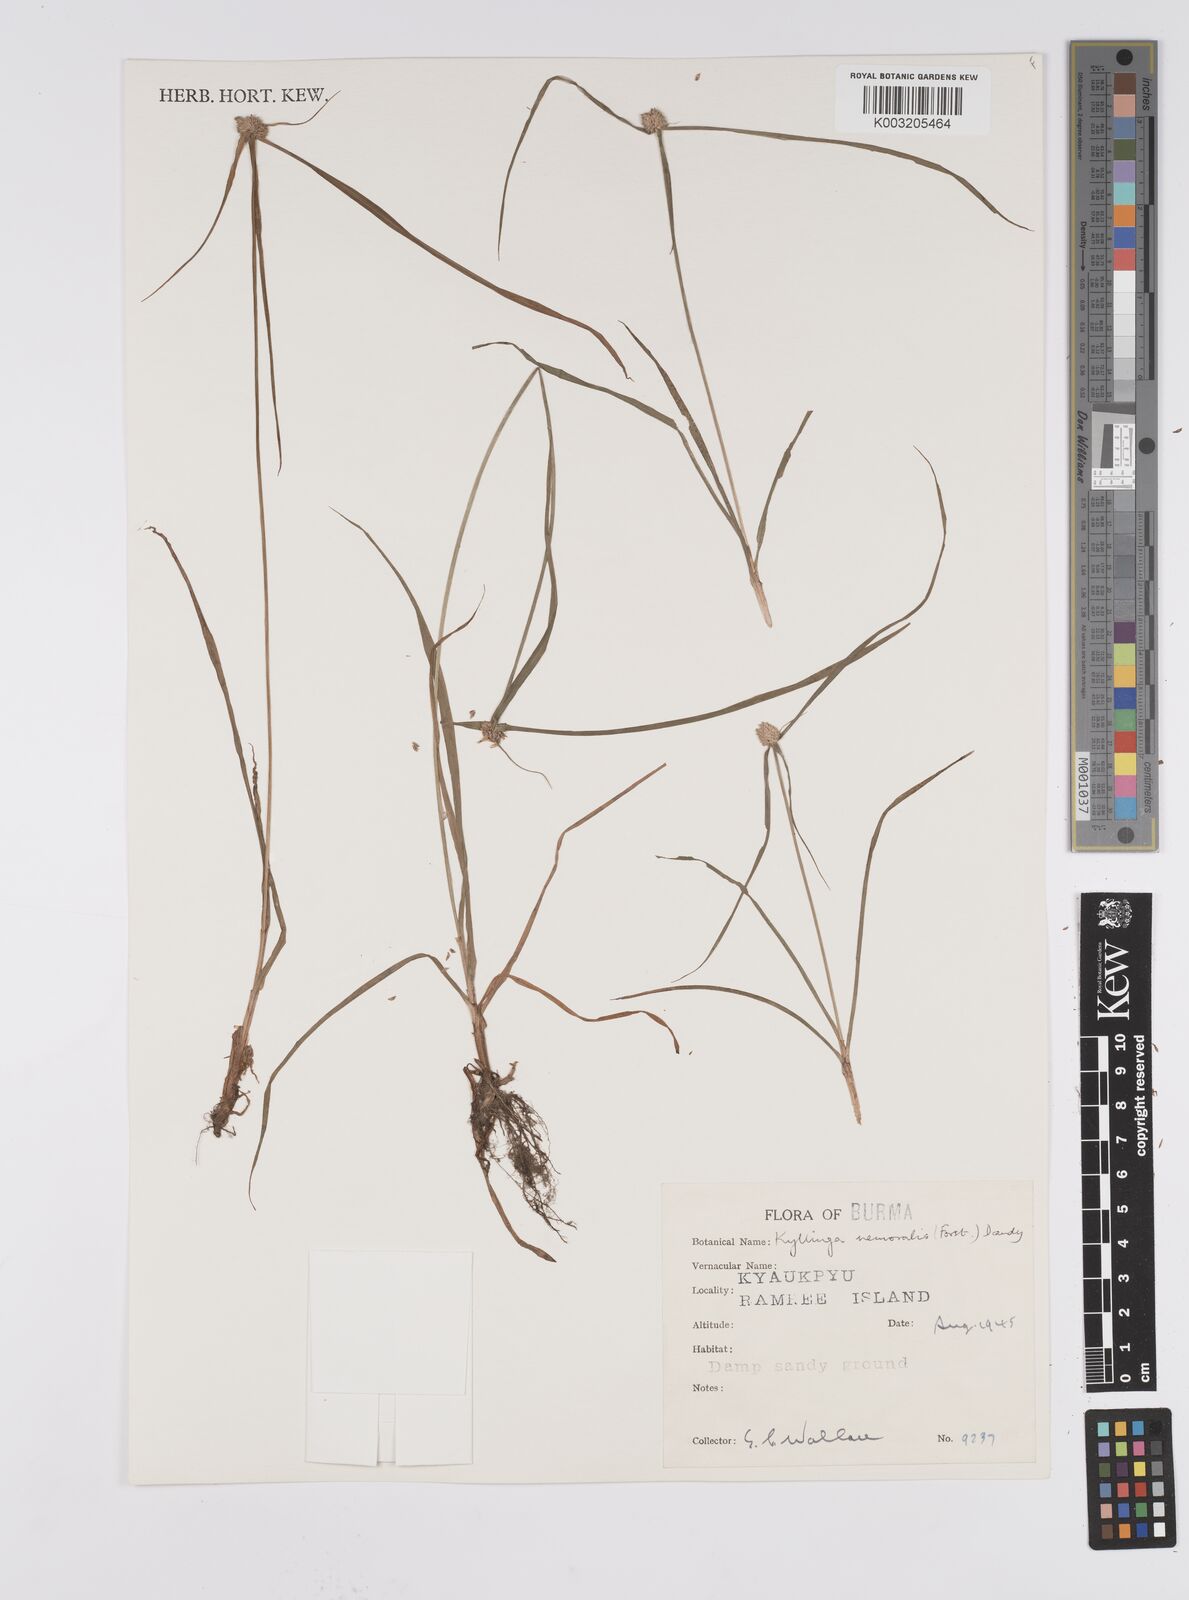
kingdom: Plantae
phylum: Tracheophyta
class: Liliopsida
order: Poales
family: Cyperaceae
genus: Cyperus
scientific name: Cyperus nemoralis
